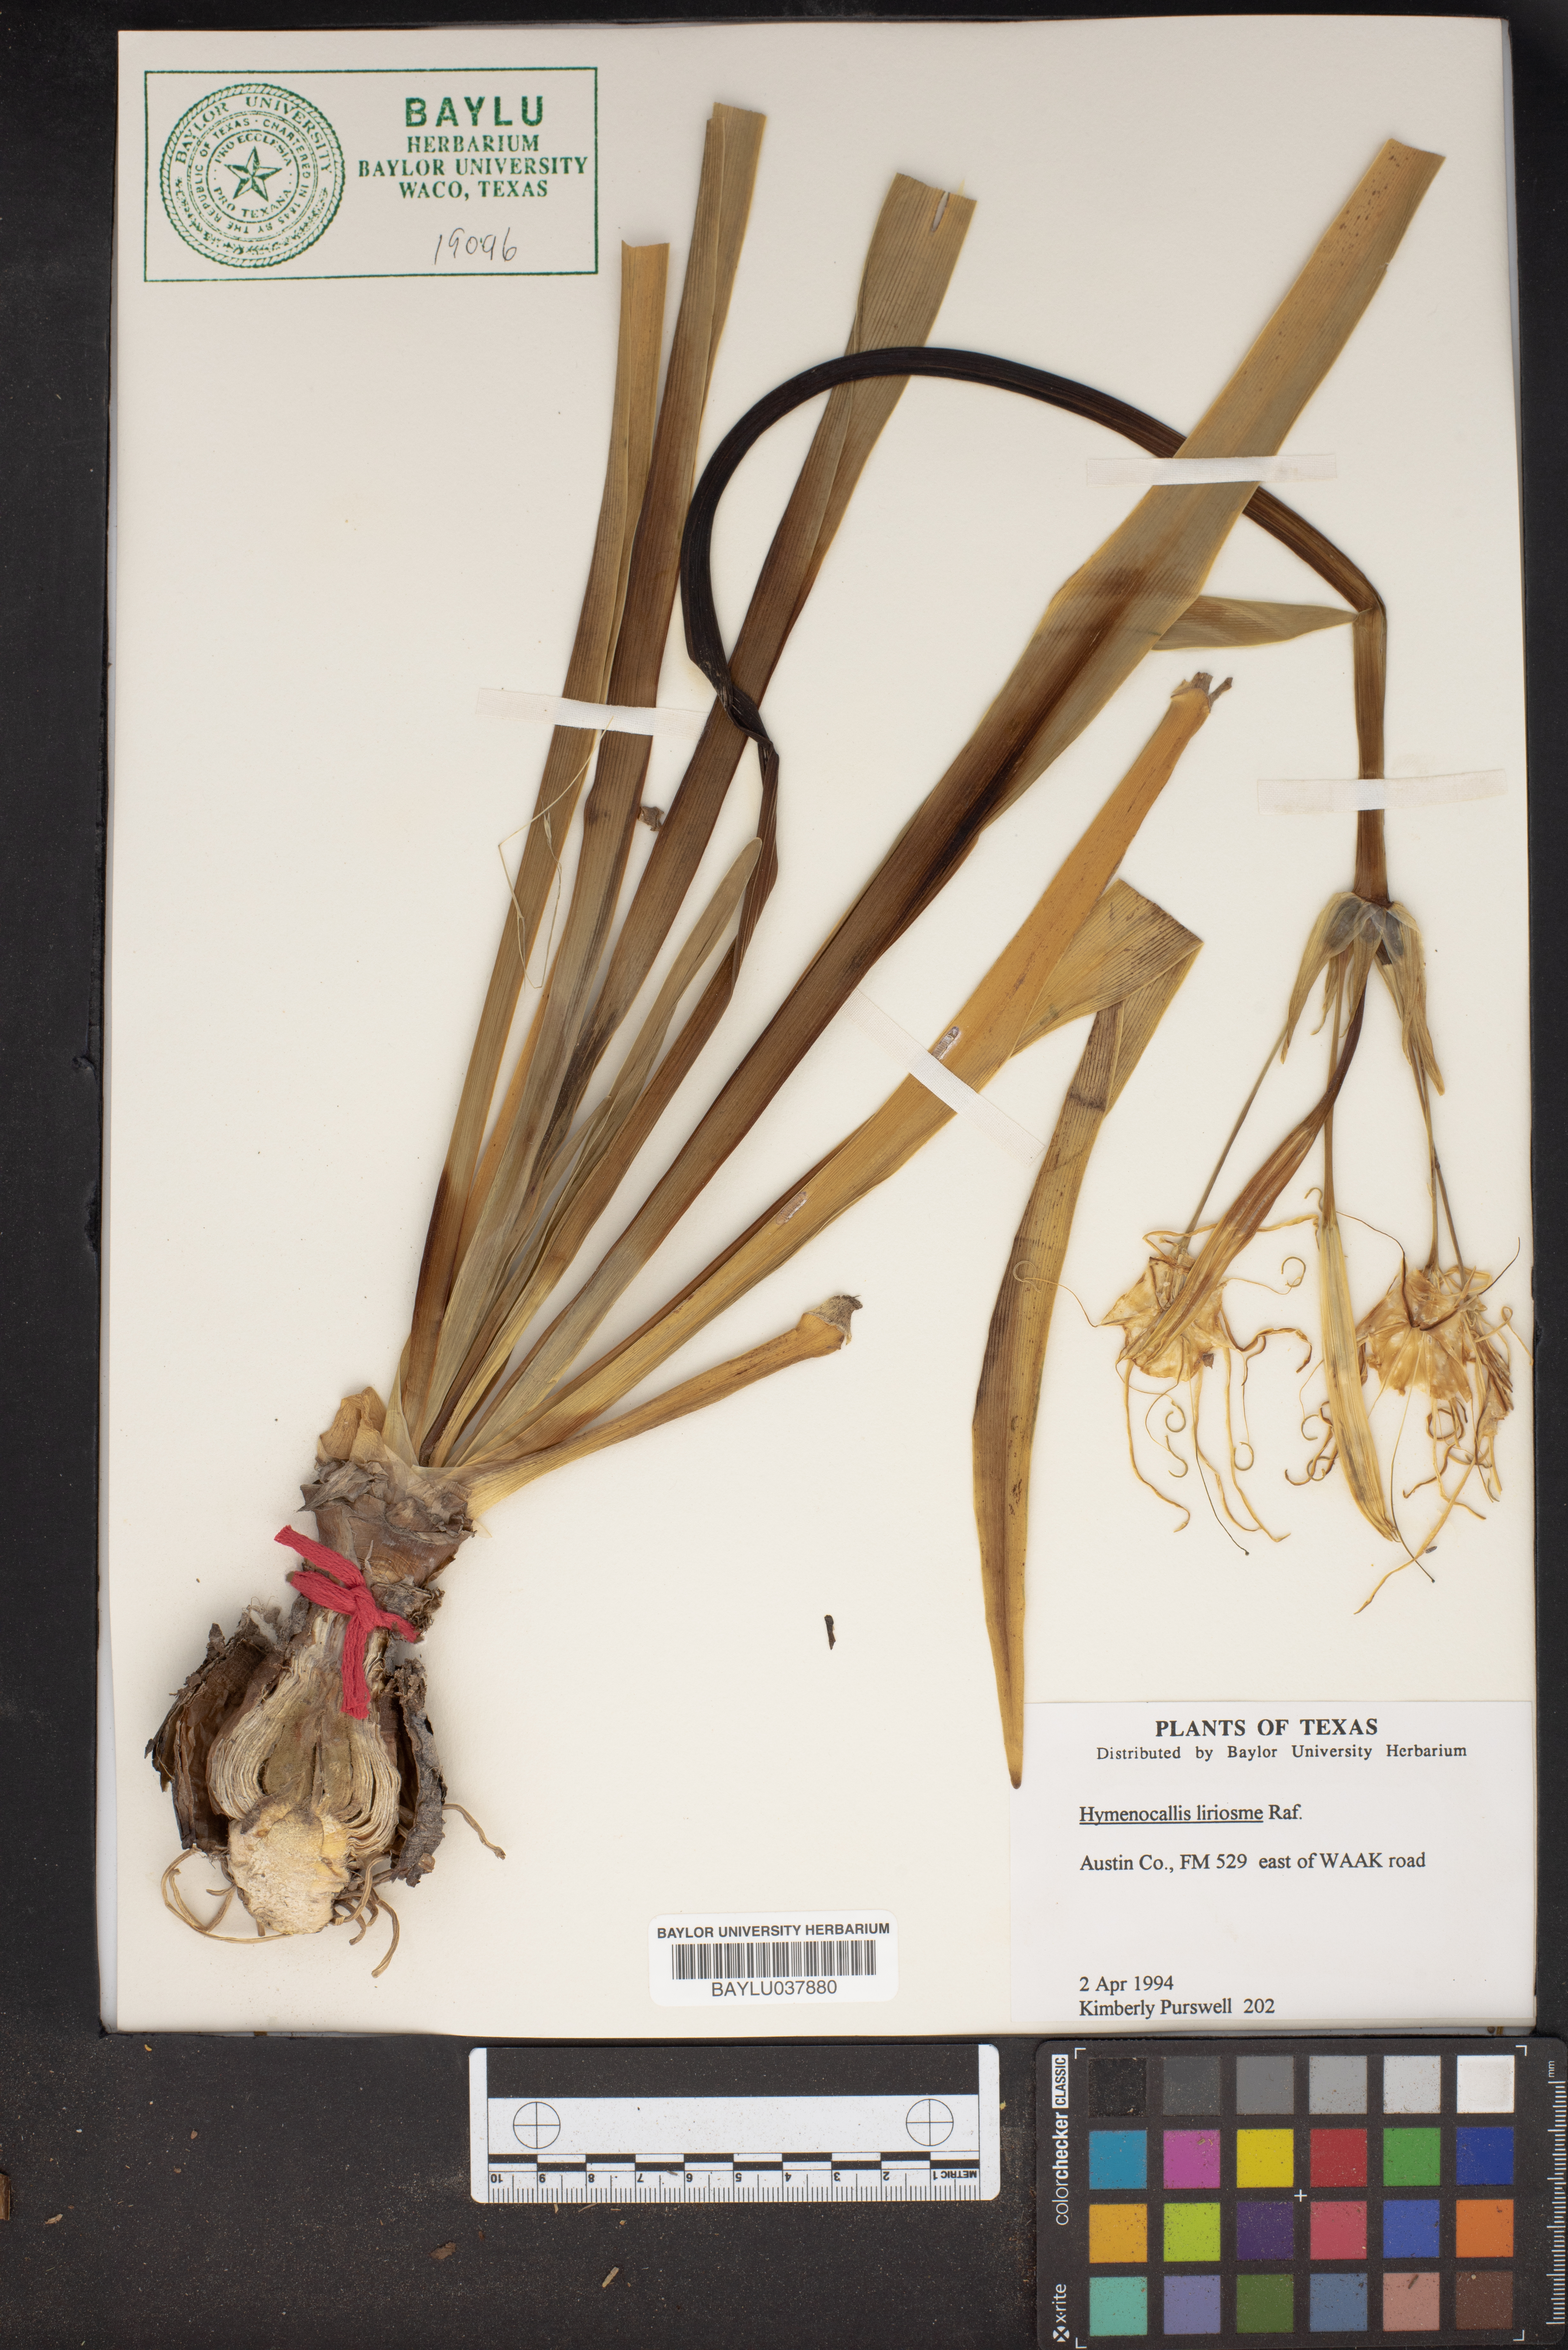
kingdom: Plantae
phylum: Tracheophyta
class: Liliopsida
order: Asparagales
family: Amaryllidaceae
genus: Hymenocallis
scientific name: Hymenocallis liriosme
